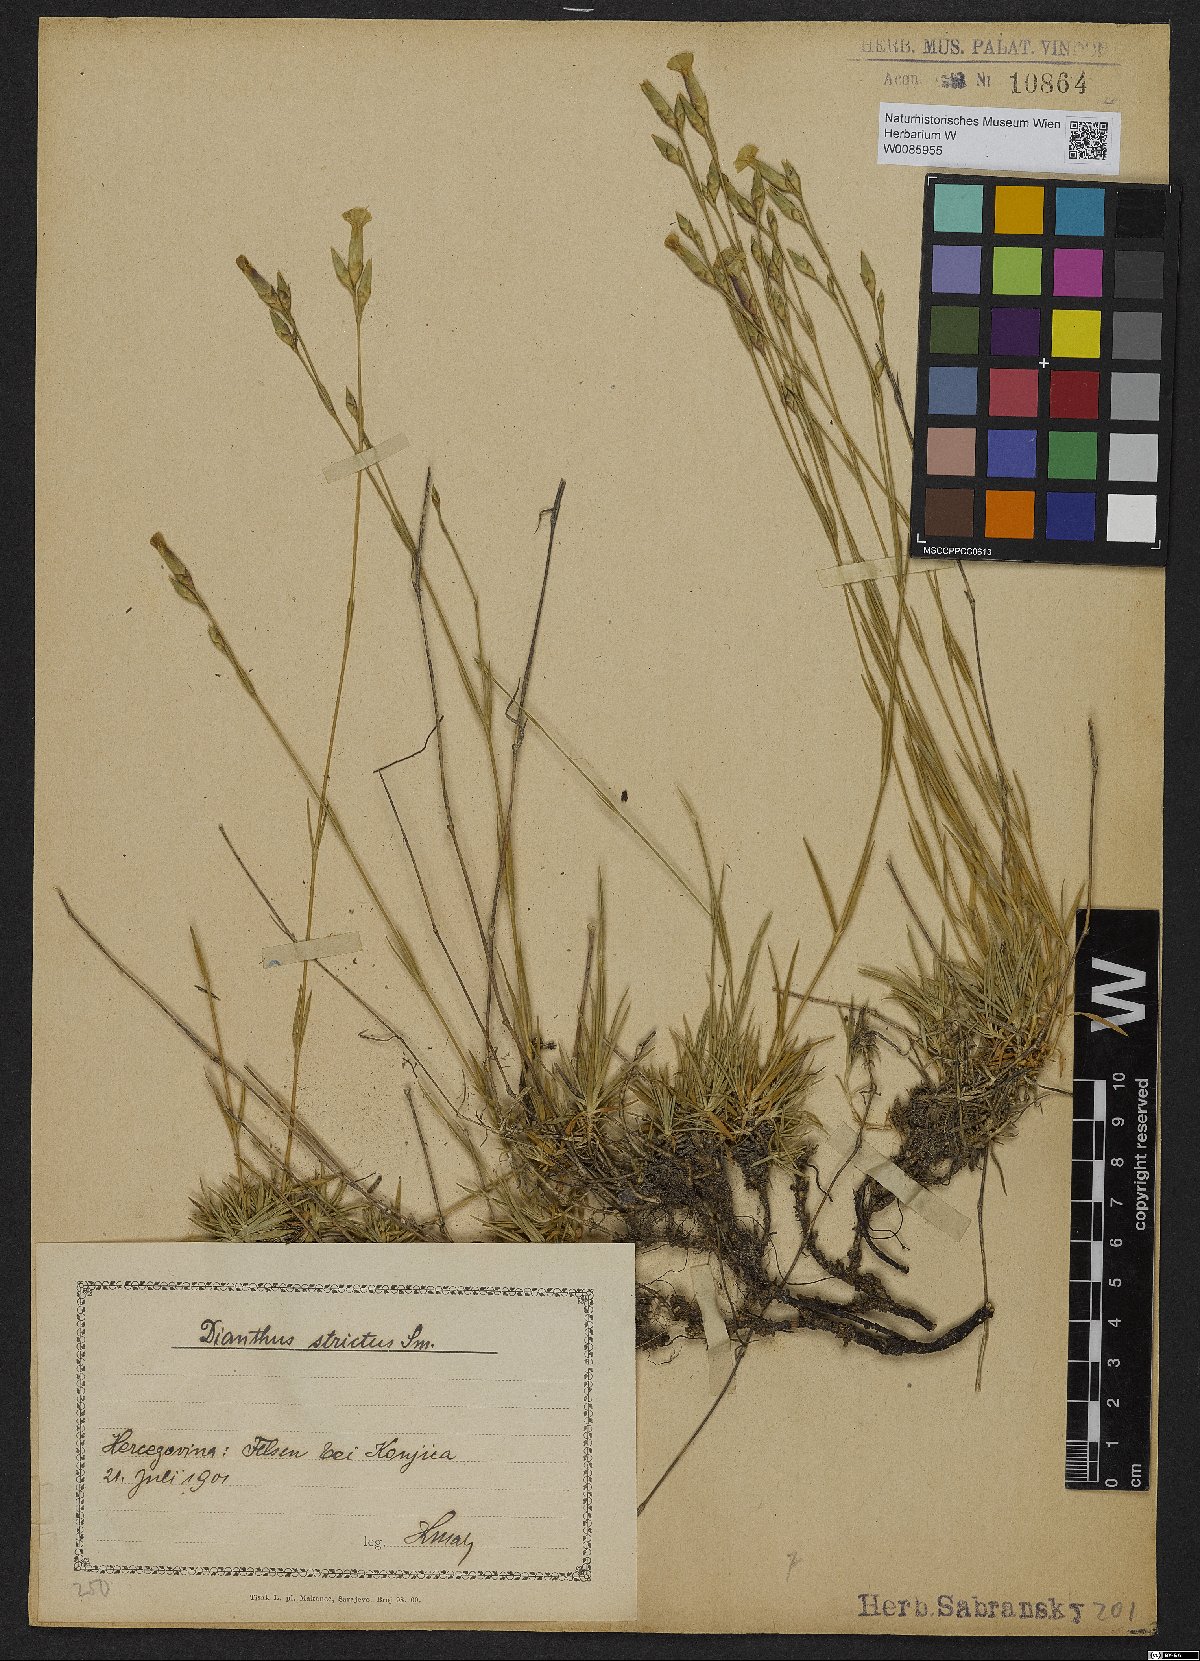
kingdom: Plantae
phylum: Tracheophyta
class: Magnoliopsida
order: Caryophyllales
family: Caryophyllaceae
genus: Dianthus
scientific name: Dianthus petraeus
